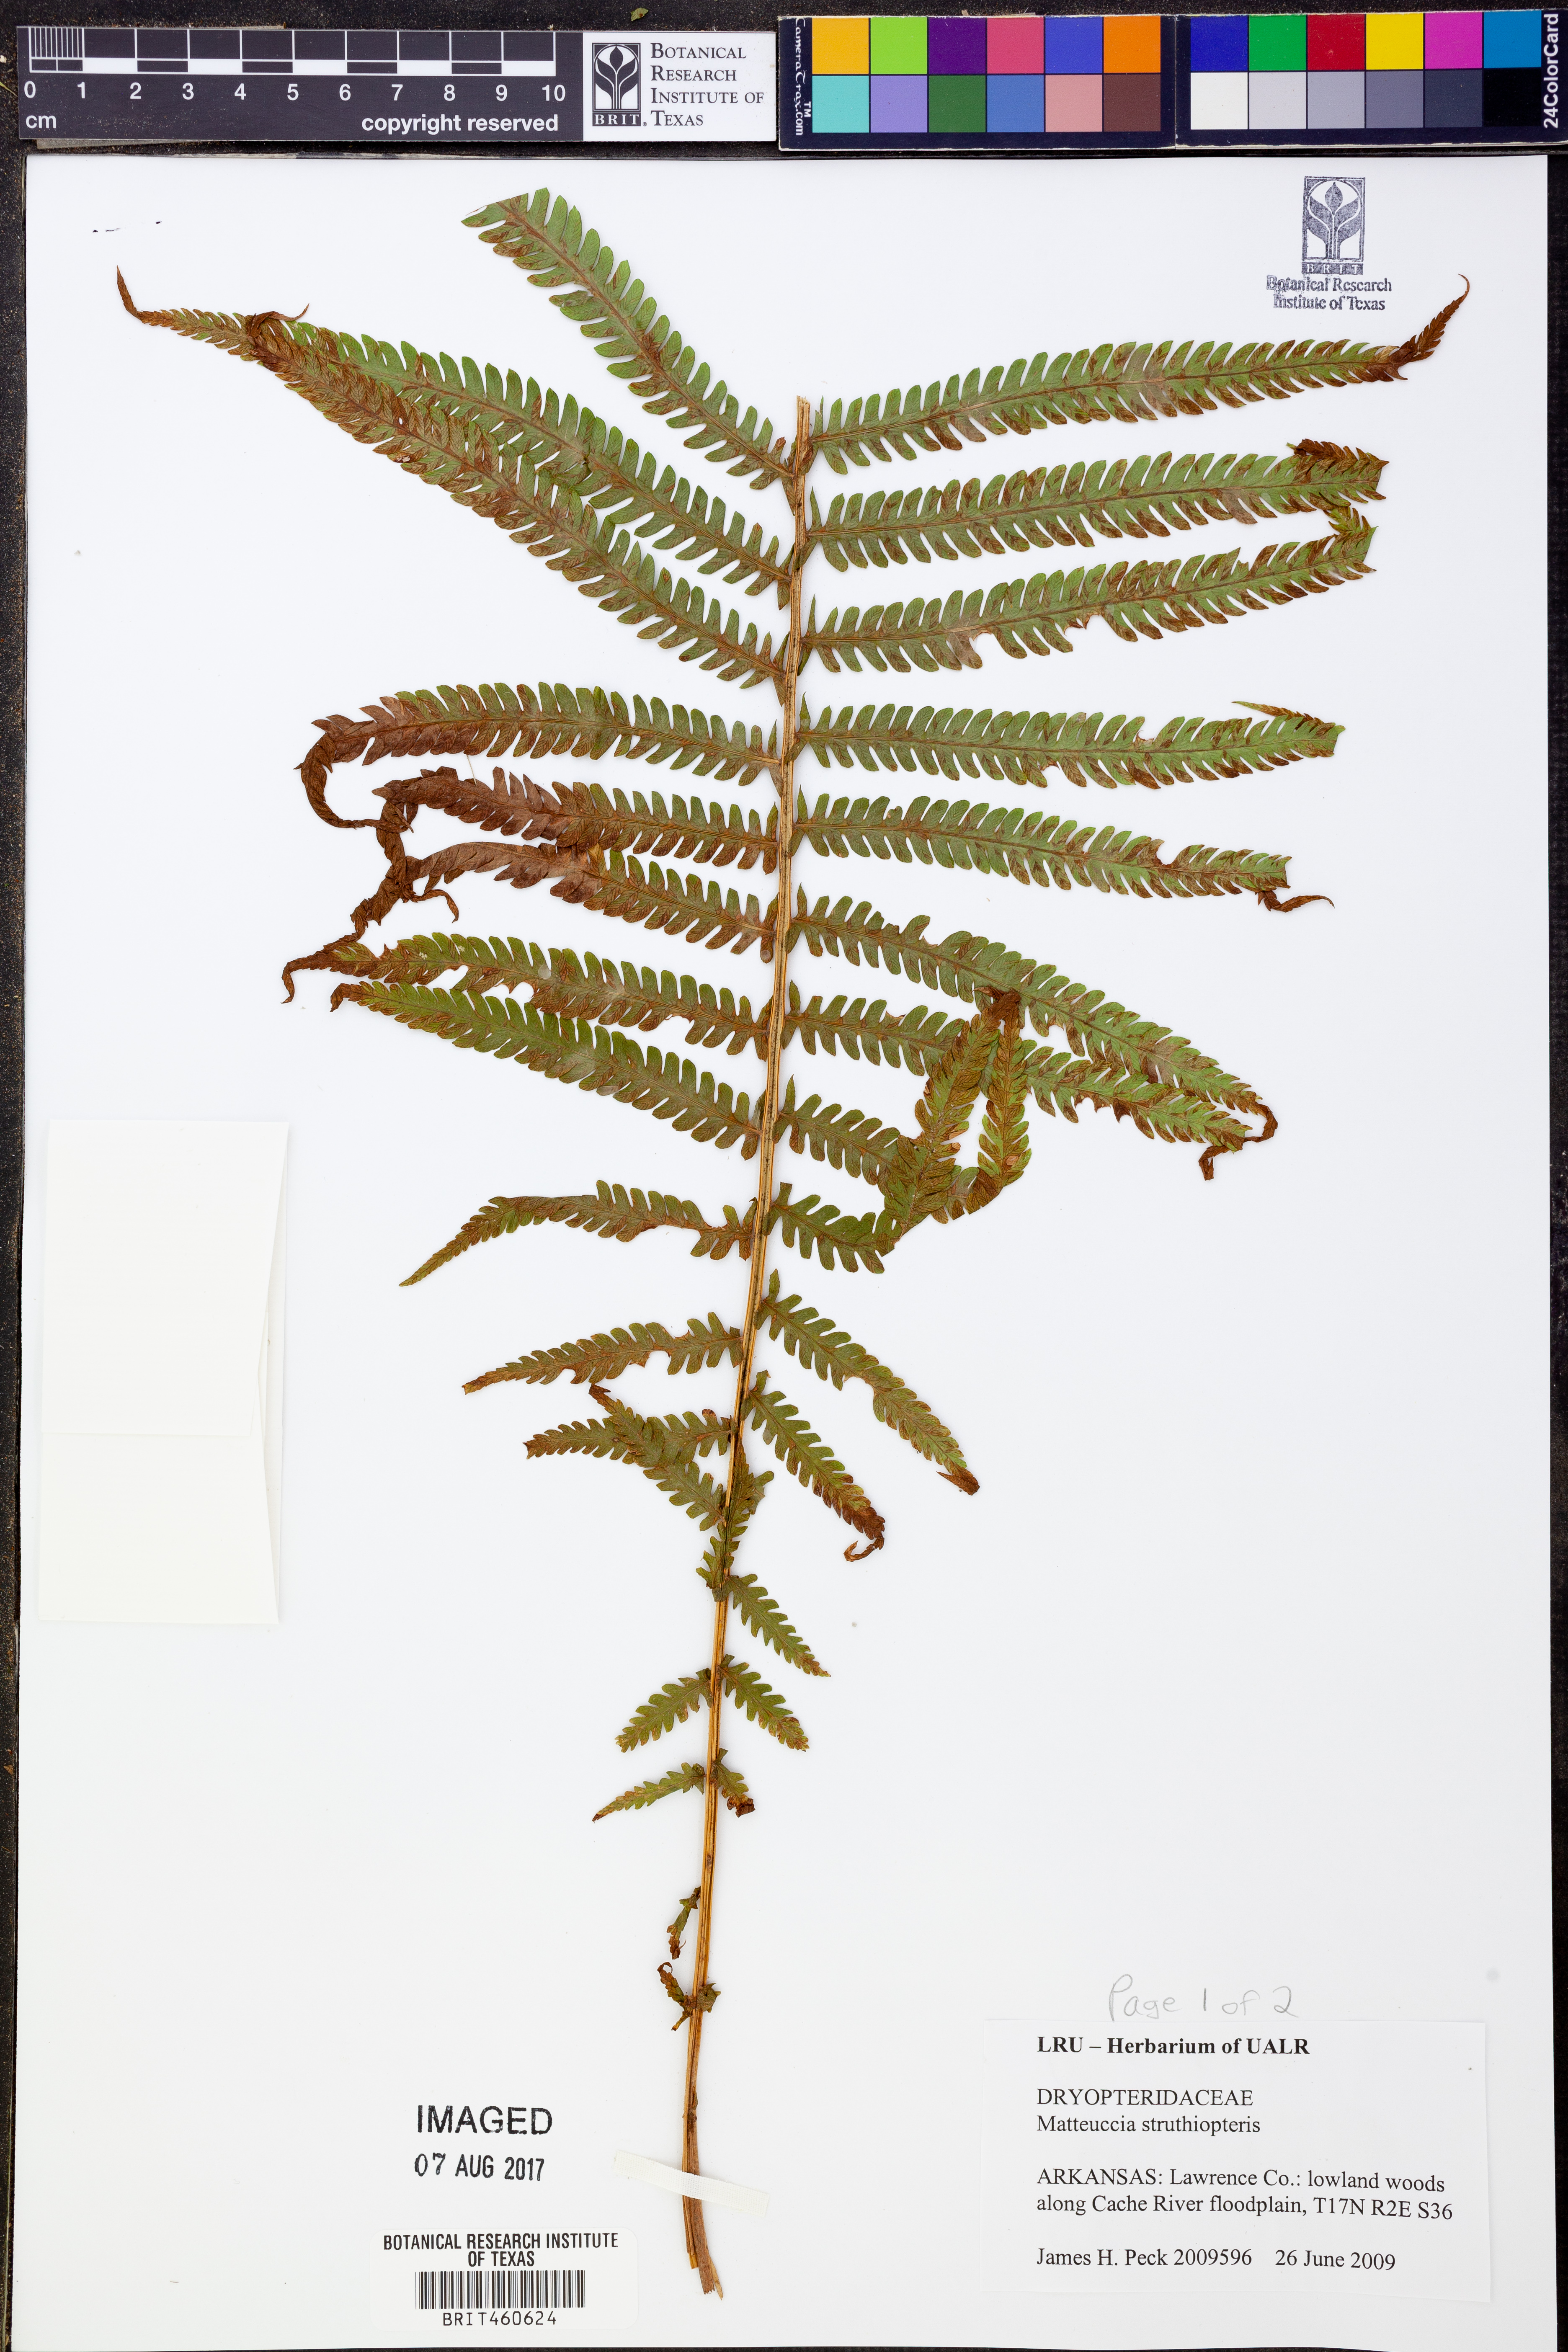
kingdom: Plantae
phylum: Tracheophyta
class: Polypodiopsida
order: Polypodiales
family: Onocleaceae
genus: Matteuccia
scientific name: Matteuccia struthiopteris
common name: Ostrich fern
